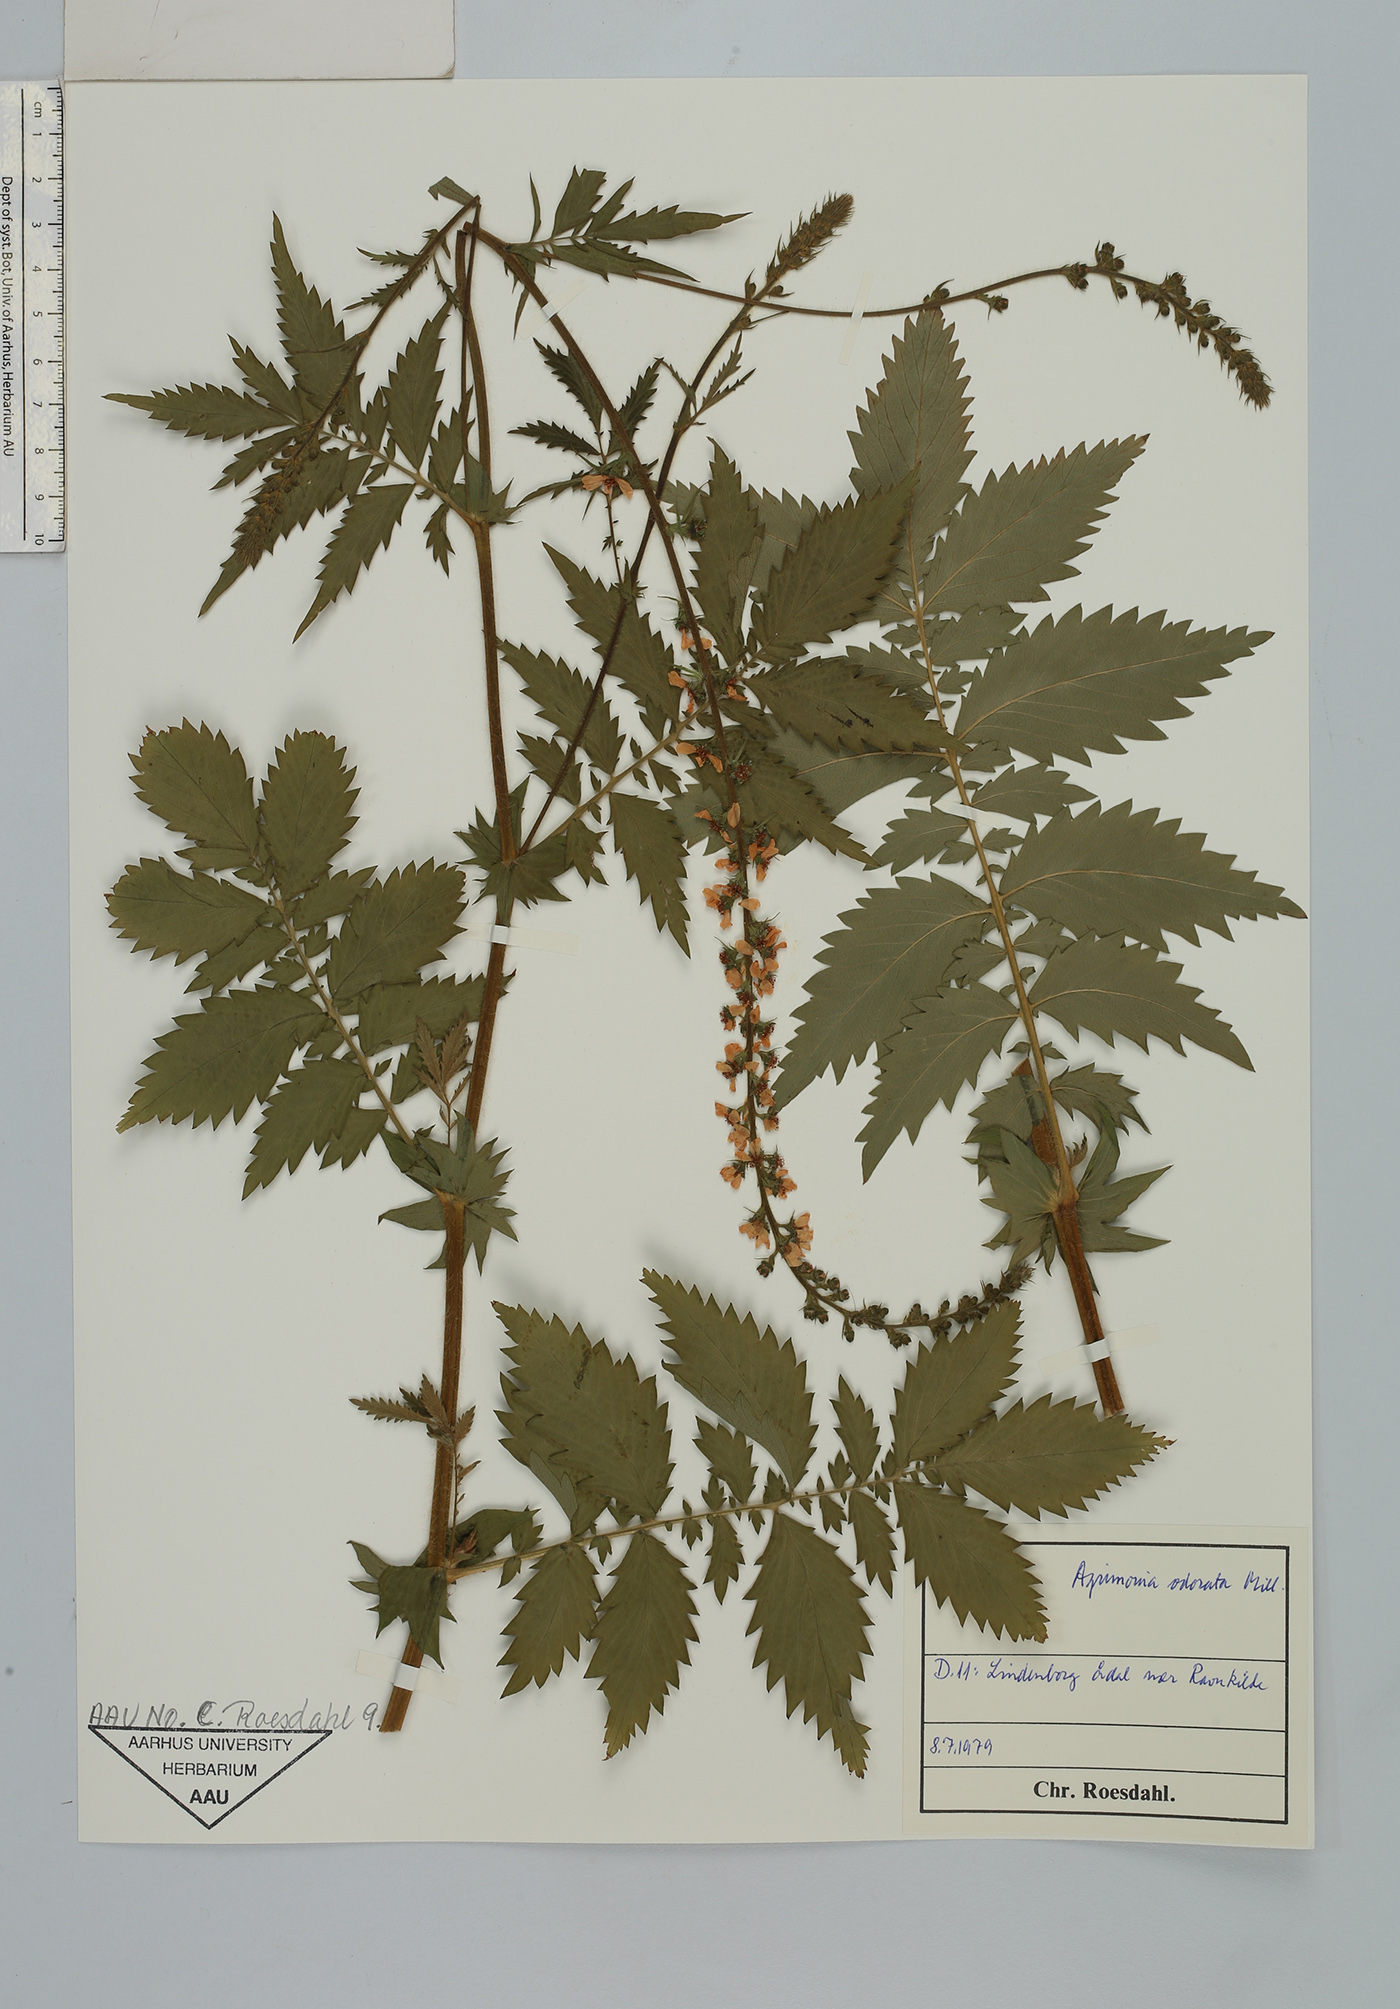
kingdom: Plantae
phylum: Tracheophyta
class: Magnoliopsida
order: Rosales
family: Rosaceae
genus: Agrimonia
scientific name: Agrimonia repens
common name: Creeping agrimony
